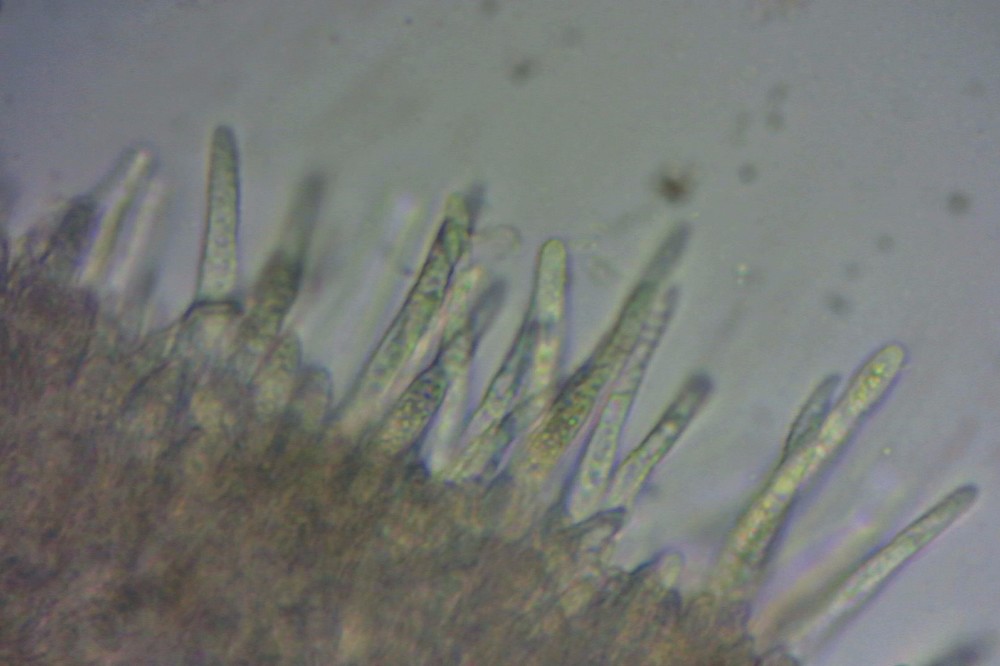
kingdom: Fungi
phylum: Ascomycota
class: Leotiomycetes
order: Helotiales
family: Lachnaceae
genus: Lachnum
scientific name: Lachnum carneolum
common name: kødfarvet frynseskive
